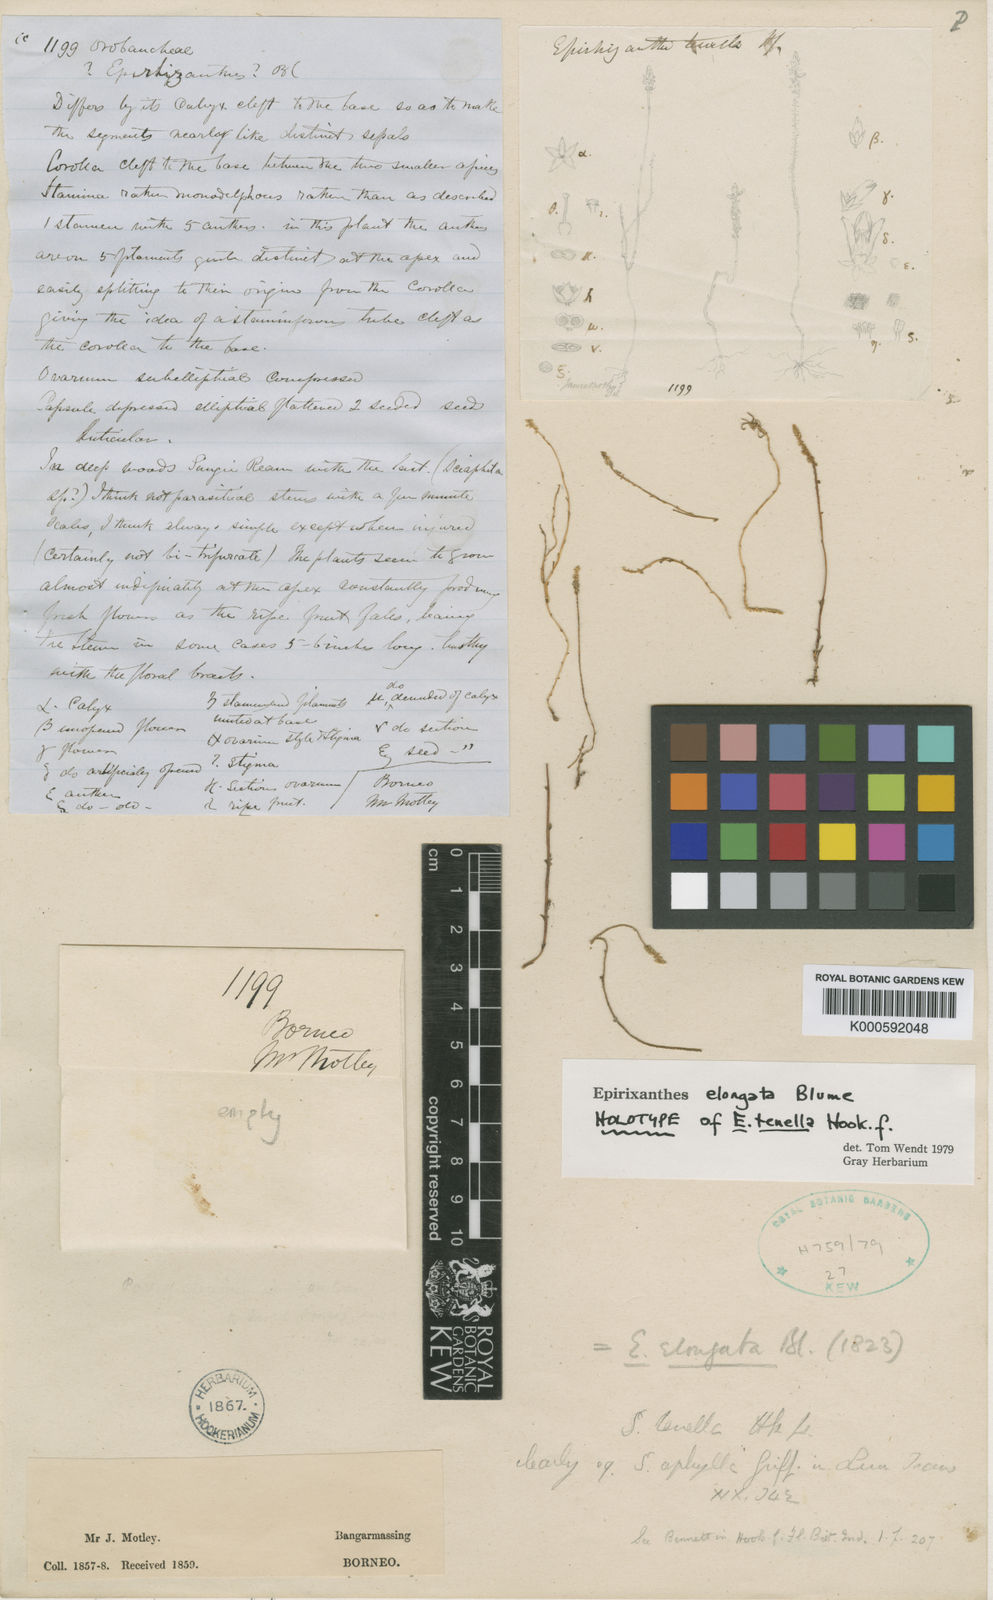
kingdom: Plantae
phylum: Tracheophyta
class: Magnoliopsida
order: Fabales
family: Polygalaceae
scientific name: Polygalaceae
